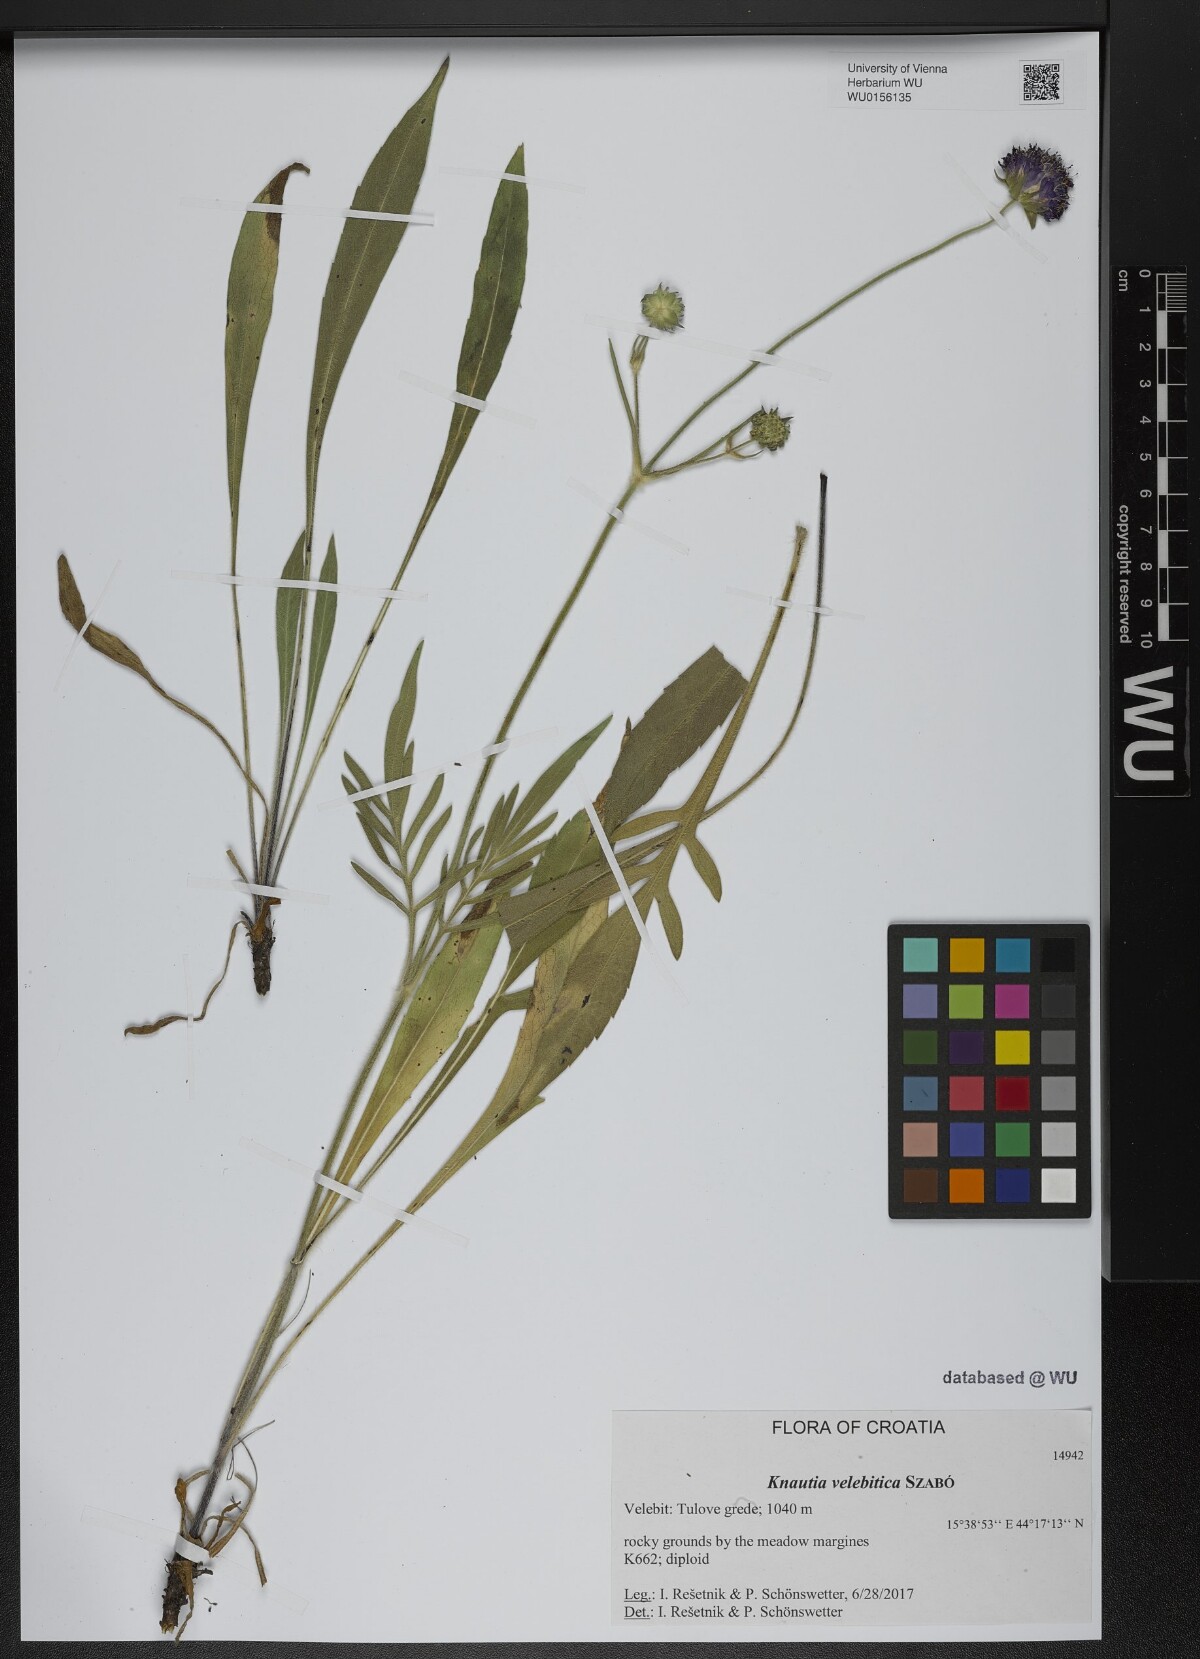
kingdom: Plantae
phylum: Tracheophyta
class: Magnoliopsida
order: Dipsacales
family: Caprifoliaceae
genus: Knautia
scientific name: Knautia velebitica
